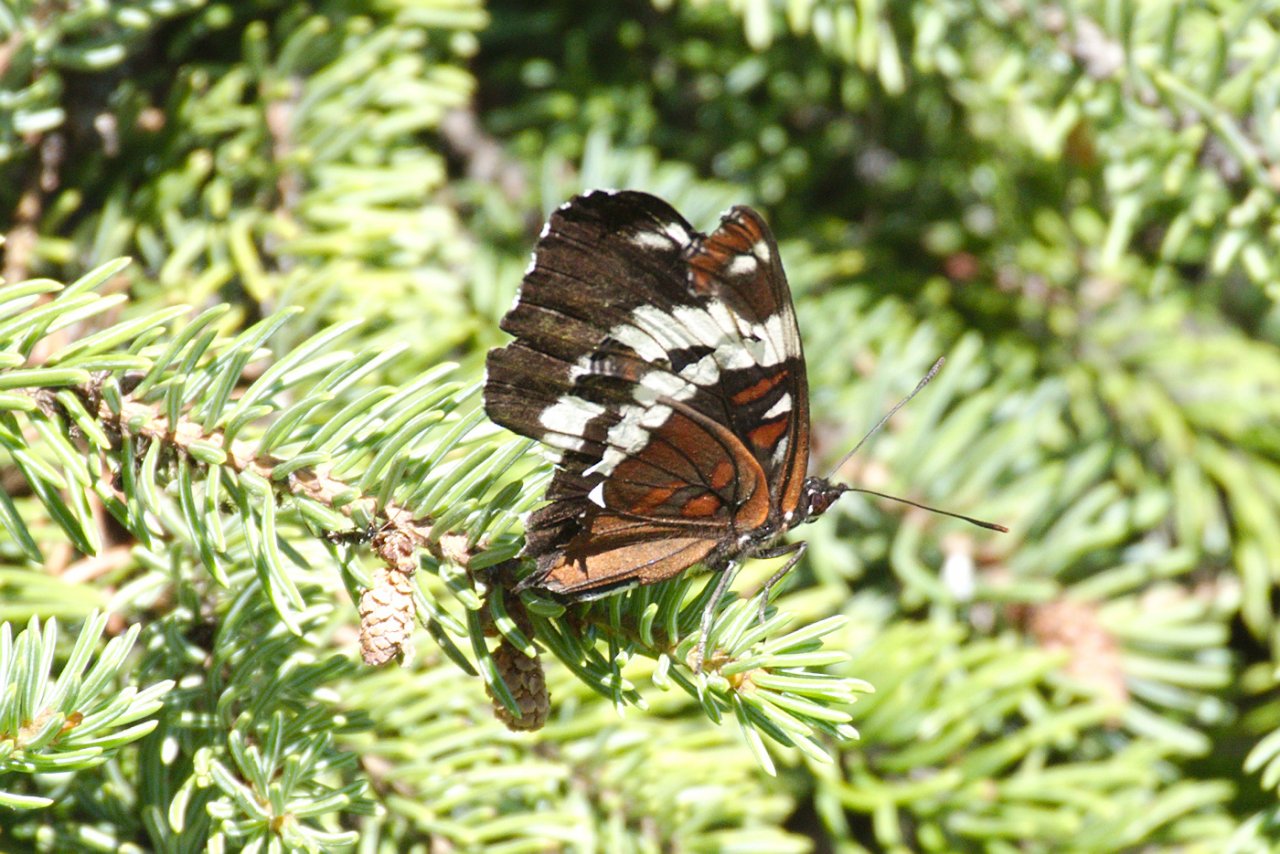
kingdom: Animalia
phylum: Arthropoda
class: Insecta
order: Lepidoptera
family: Nymphalidae
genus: Limenitis
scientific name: Limenitis arthemis
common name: Red-spotted Admiral
